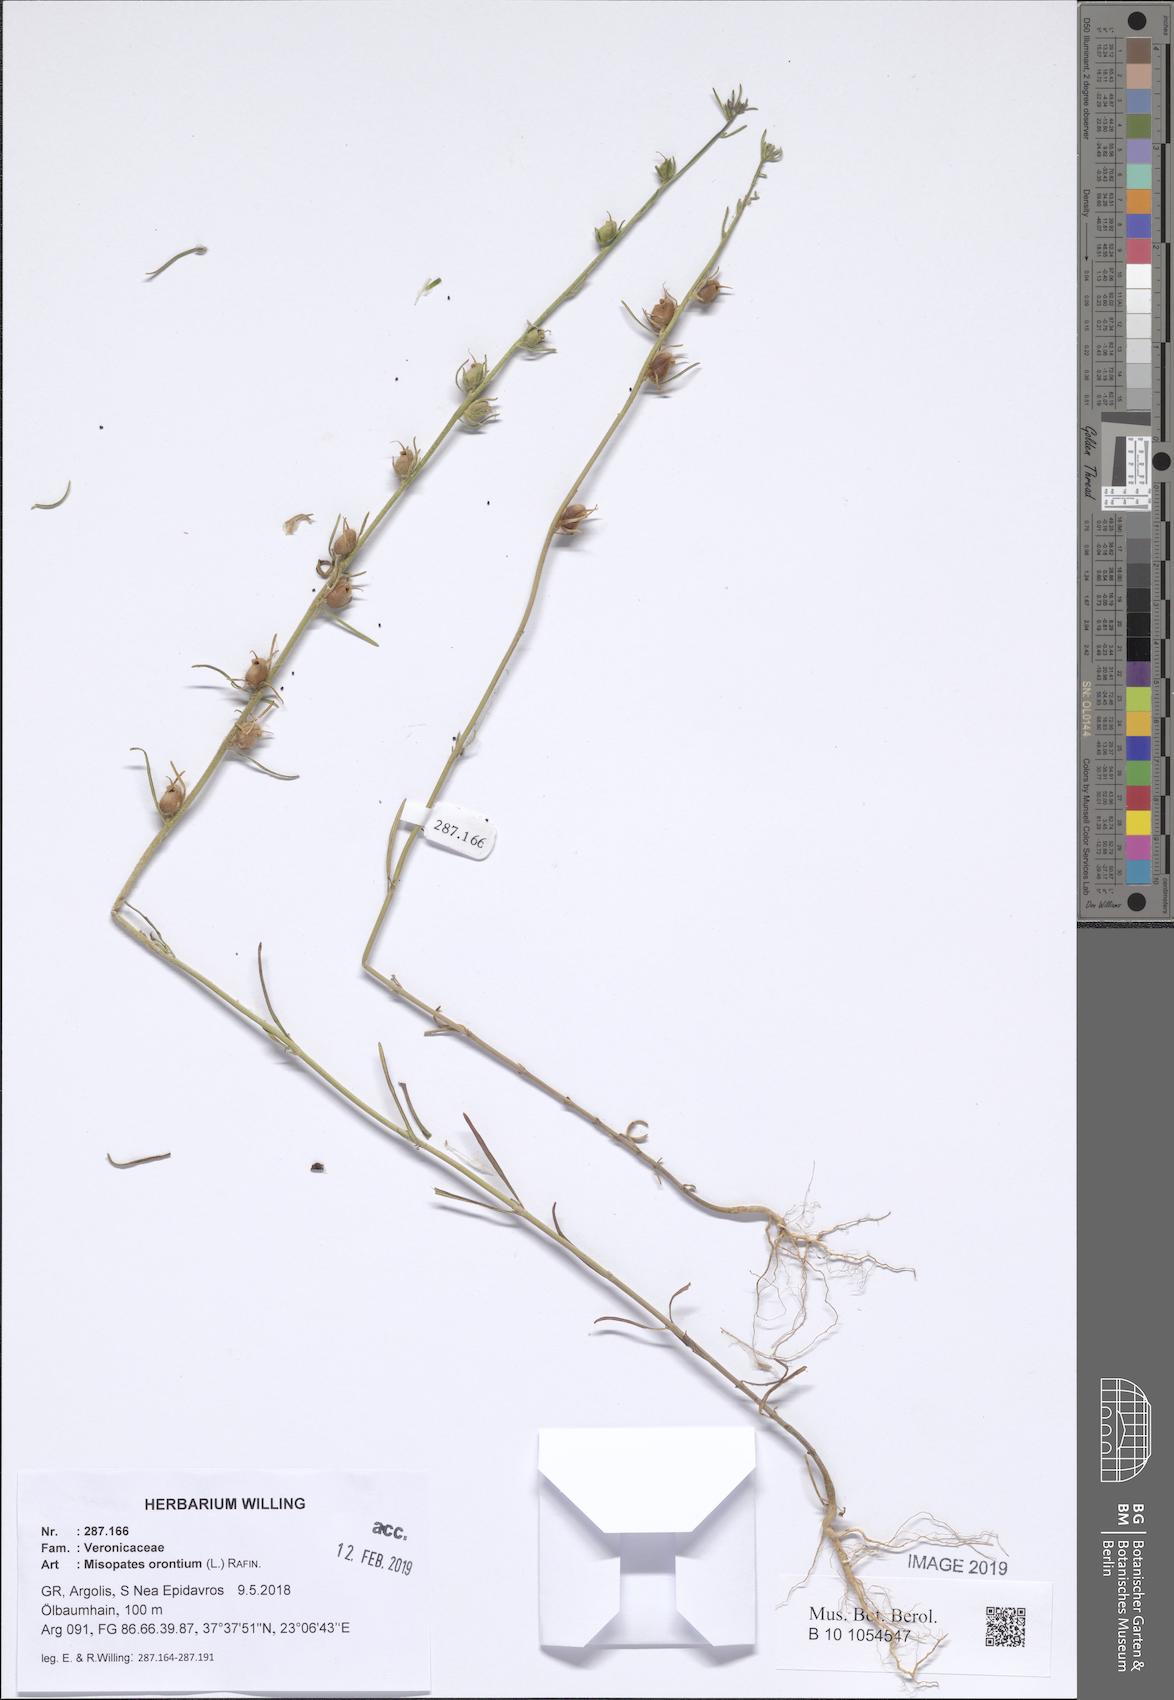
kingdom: Plantae
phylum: Tracheophyta
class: Magnoliopsida
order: Lamiales
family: Plantaginaceae
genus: Misopates
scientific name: Misopates orontium
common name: Weasel's-snout
